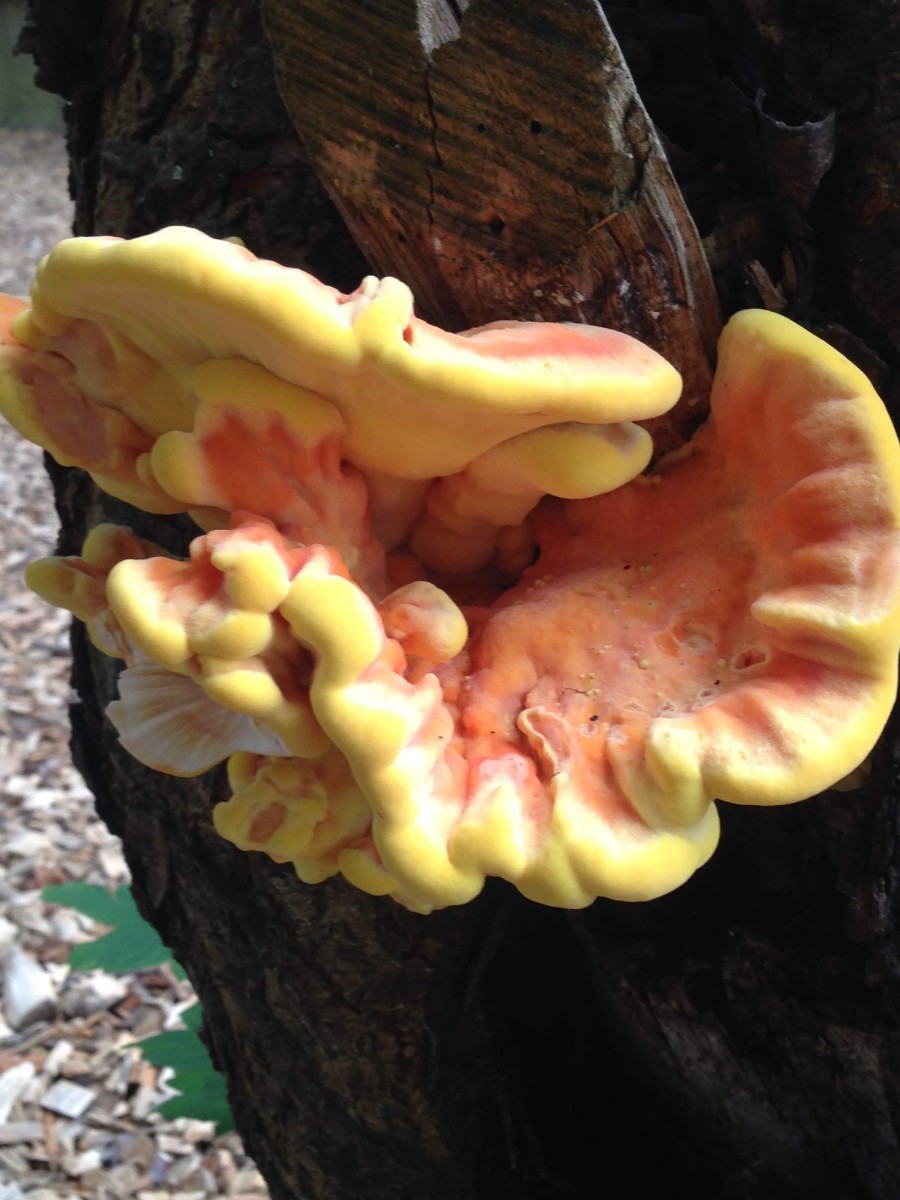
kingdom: Fungi
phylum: Basidiomycota
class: Agaricomycetes
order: Polyporales
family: Laetiporaceae
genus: Laetiporus
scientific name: Laetiporus sulphureus
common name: svovlporesvamp
